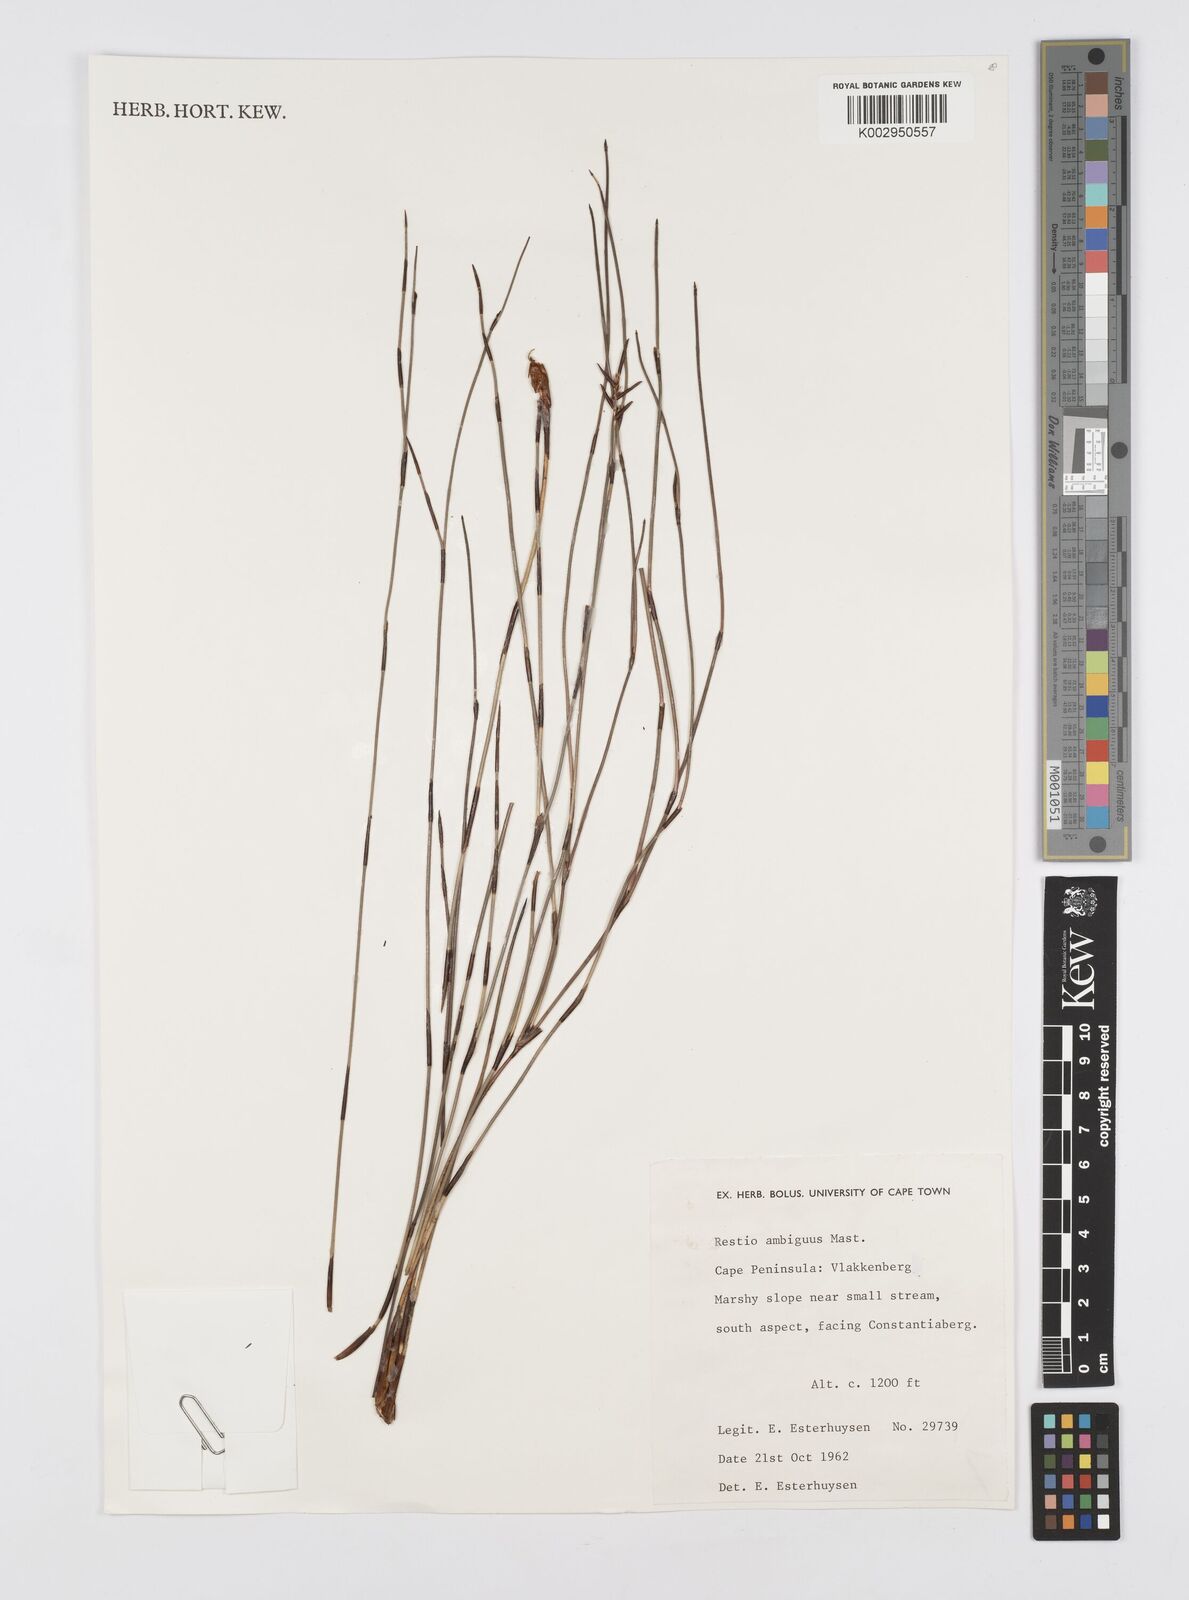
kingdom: Plantae
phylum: Tracheophyta
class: Liliopsida
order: Poales
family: Restionaceae
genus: Soroveta
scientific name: Soroveta ambigua
